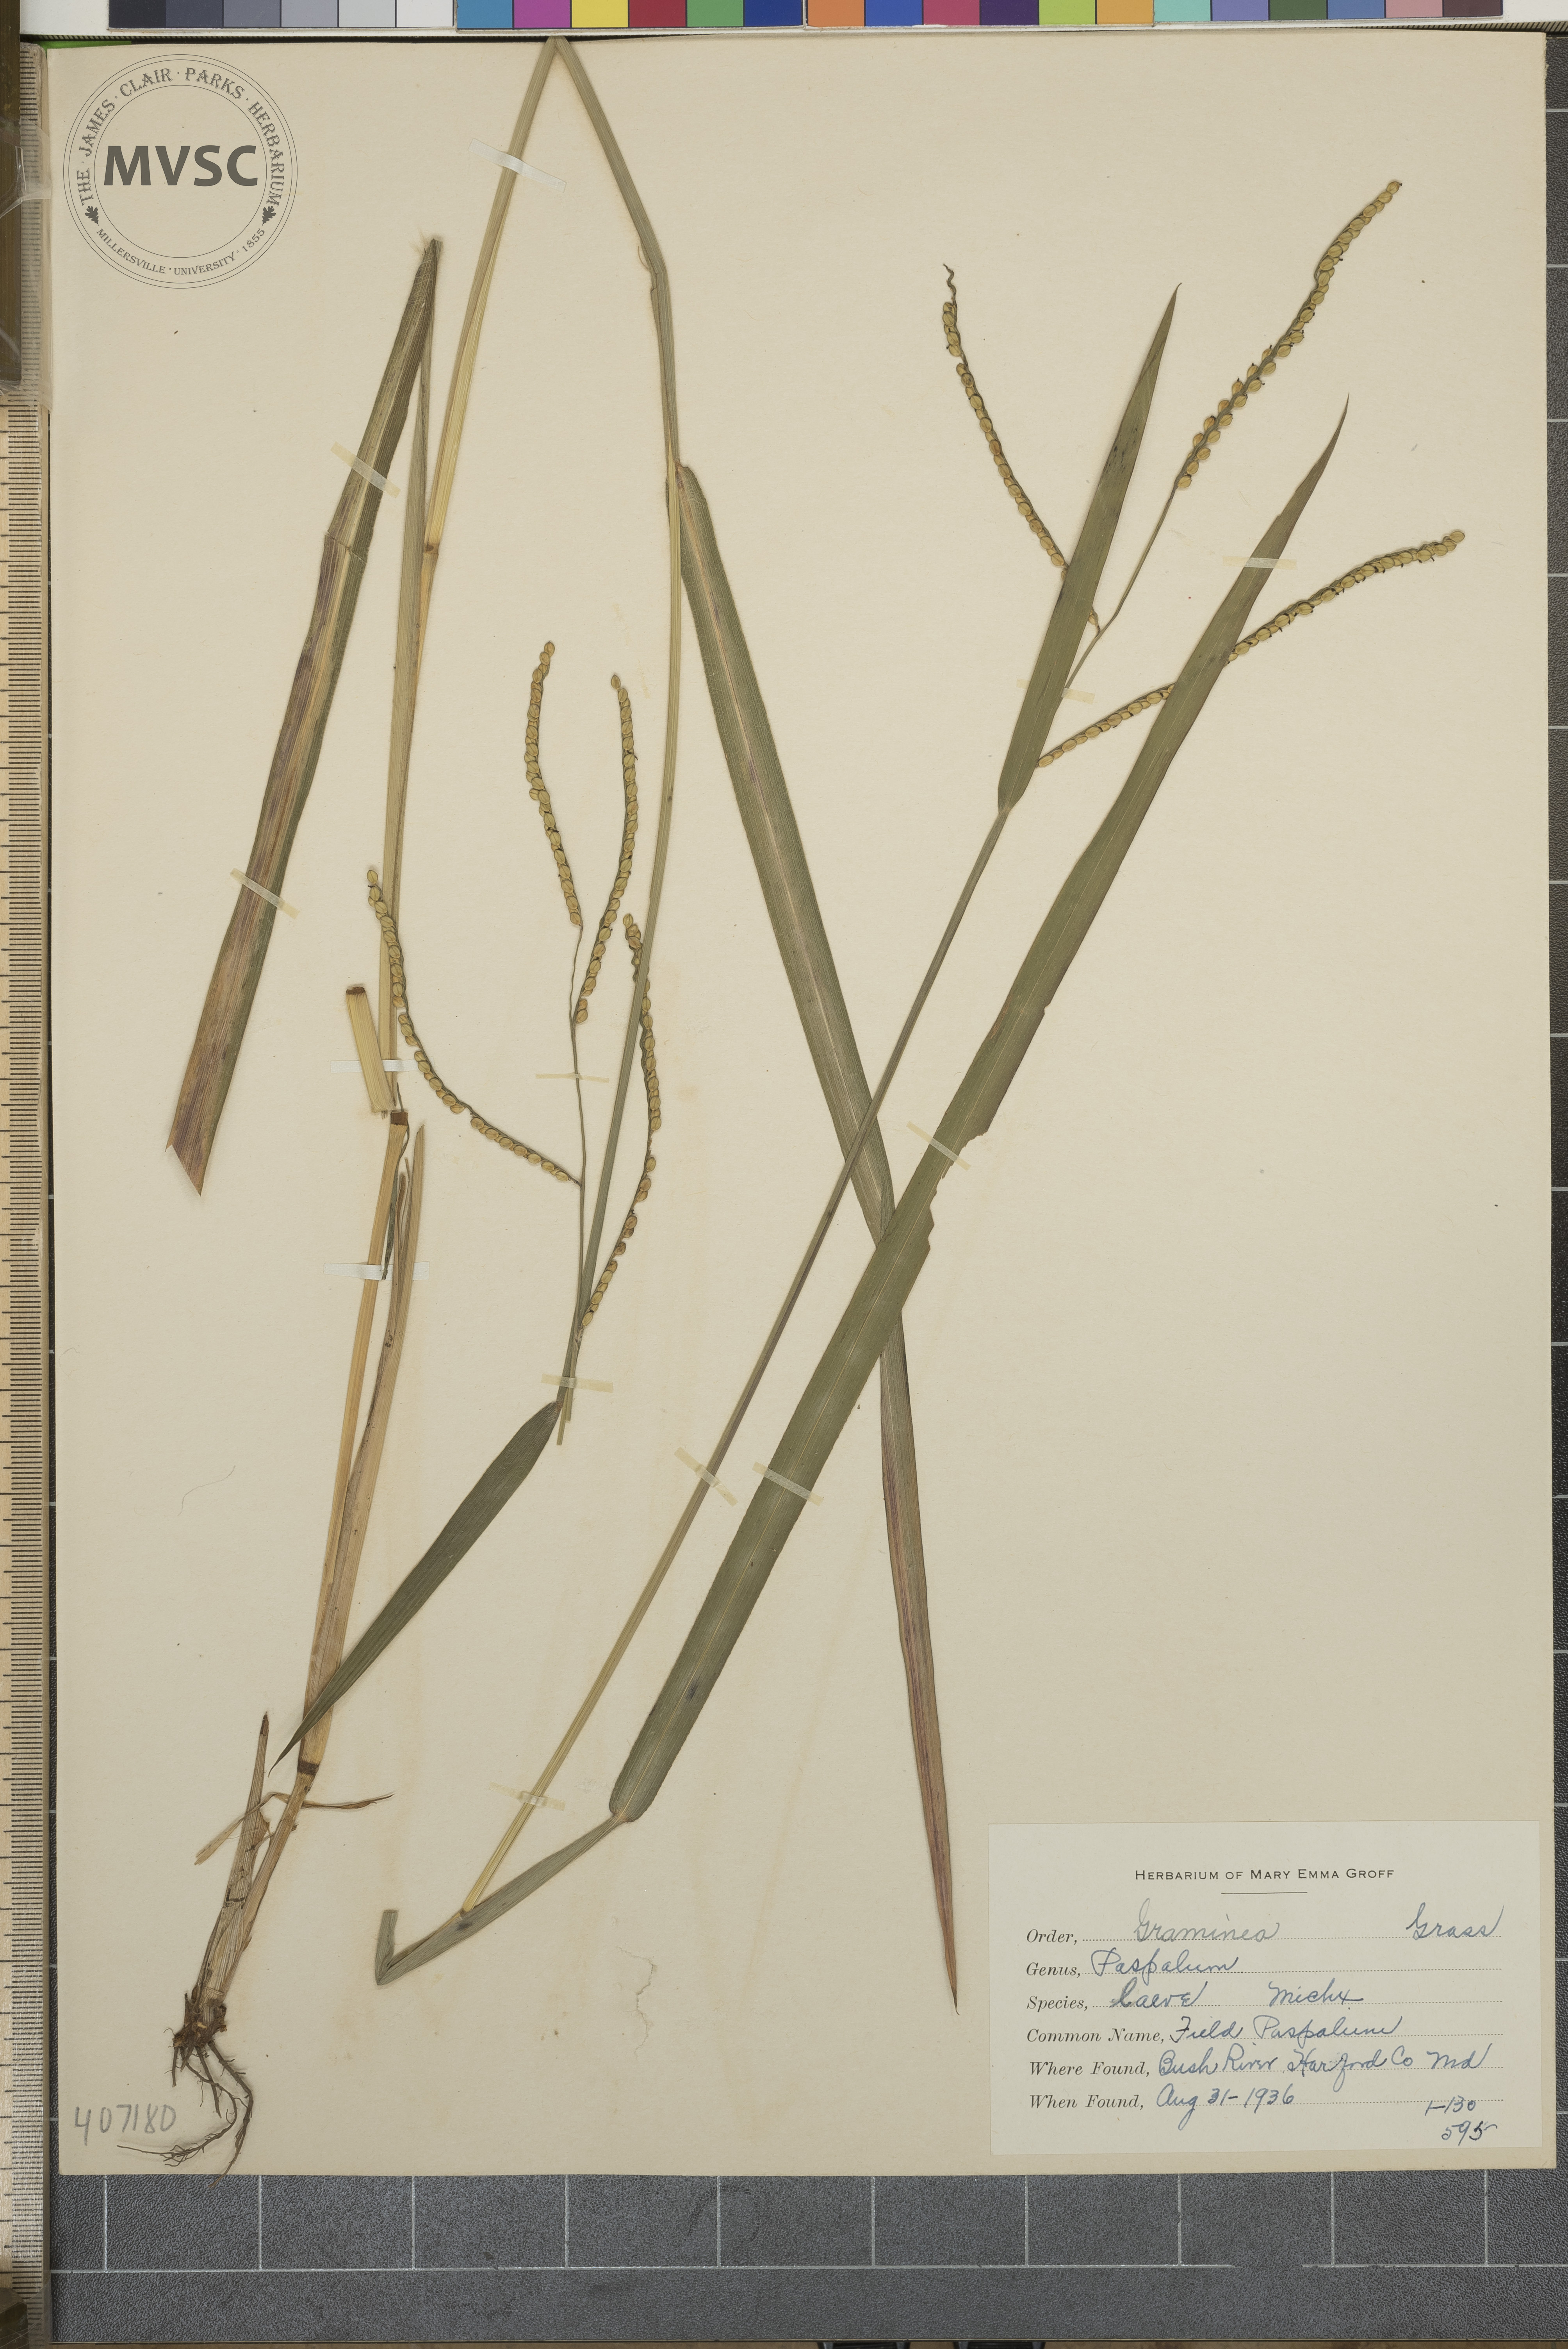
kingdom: Plantae
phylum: Tracheophyta
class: Liliopsida
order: Poales
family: Poaceae
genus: Paspalum
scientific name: Paspalum laeve
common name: Field paspalum
